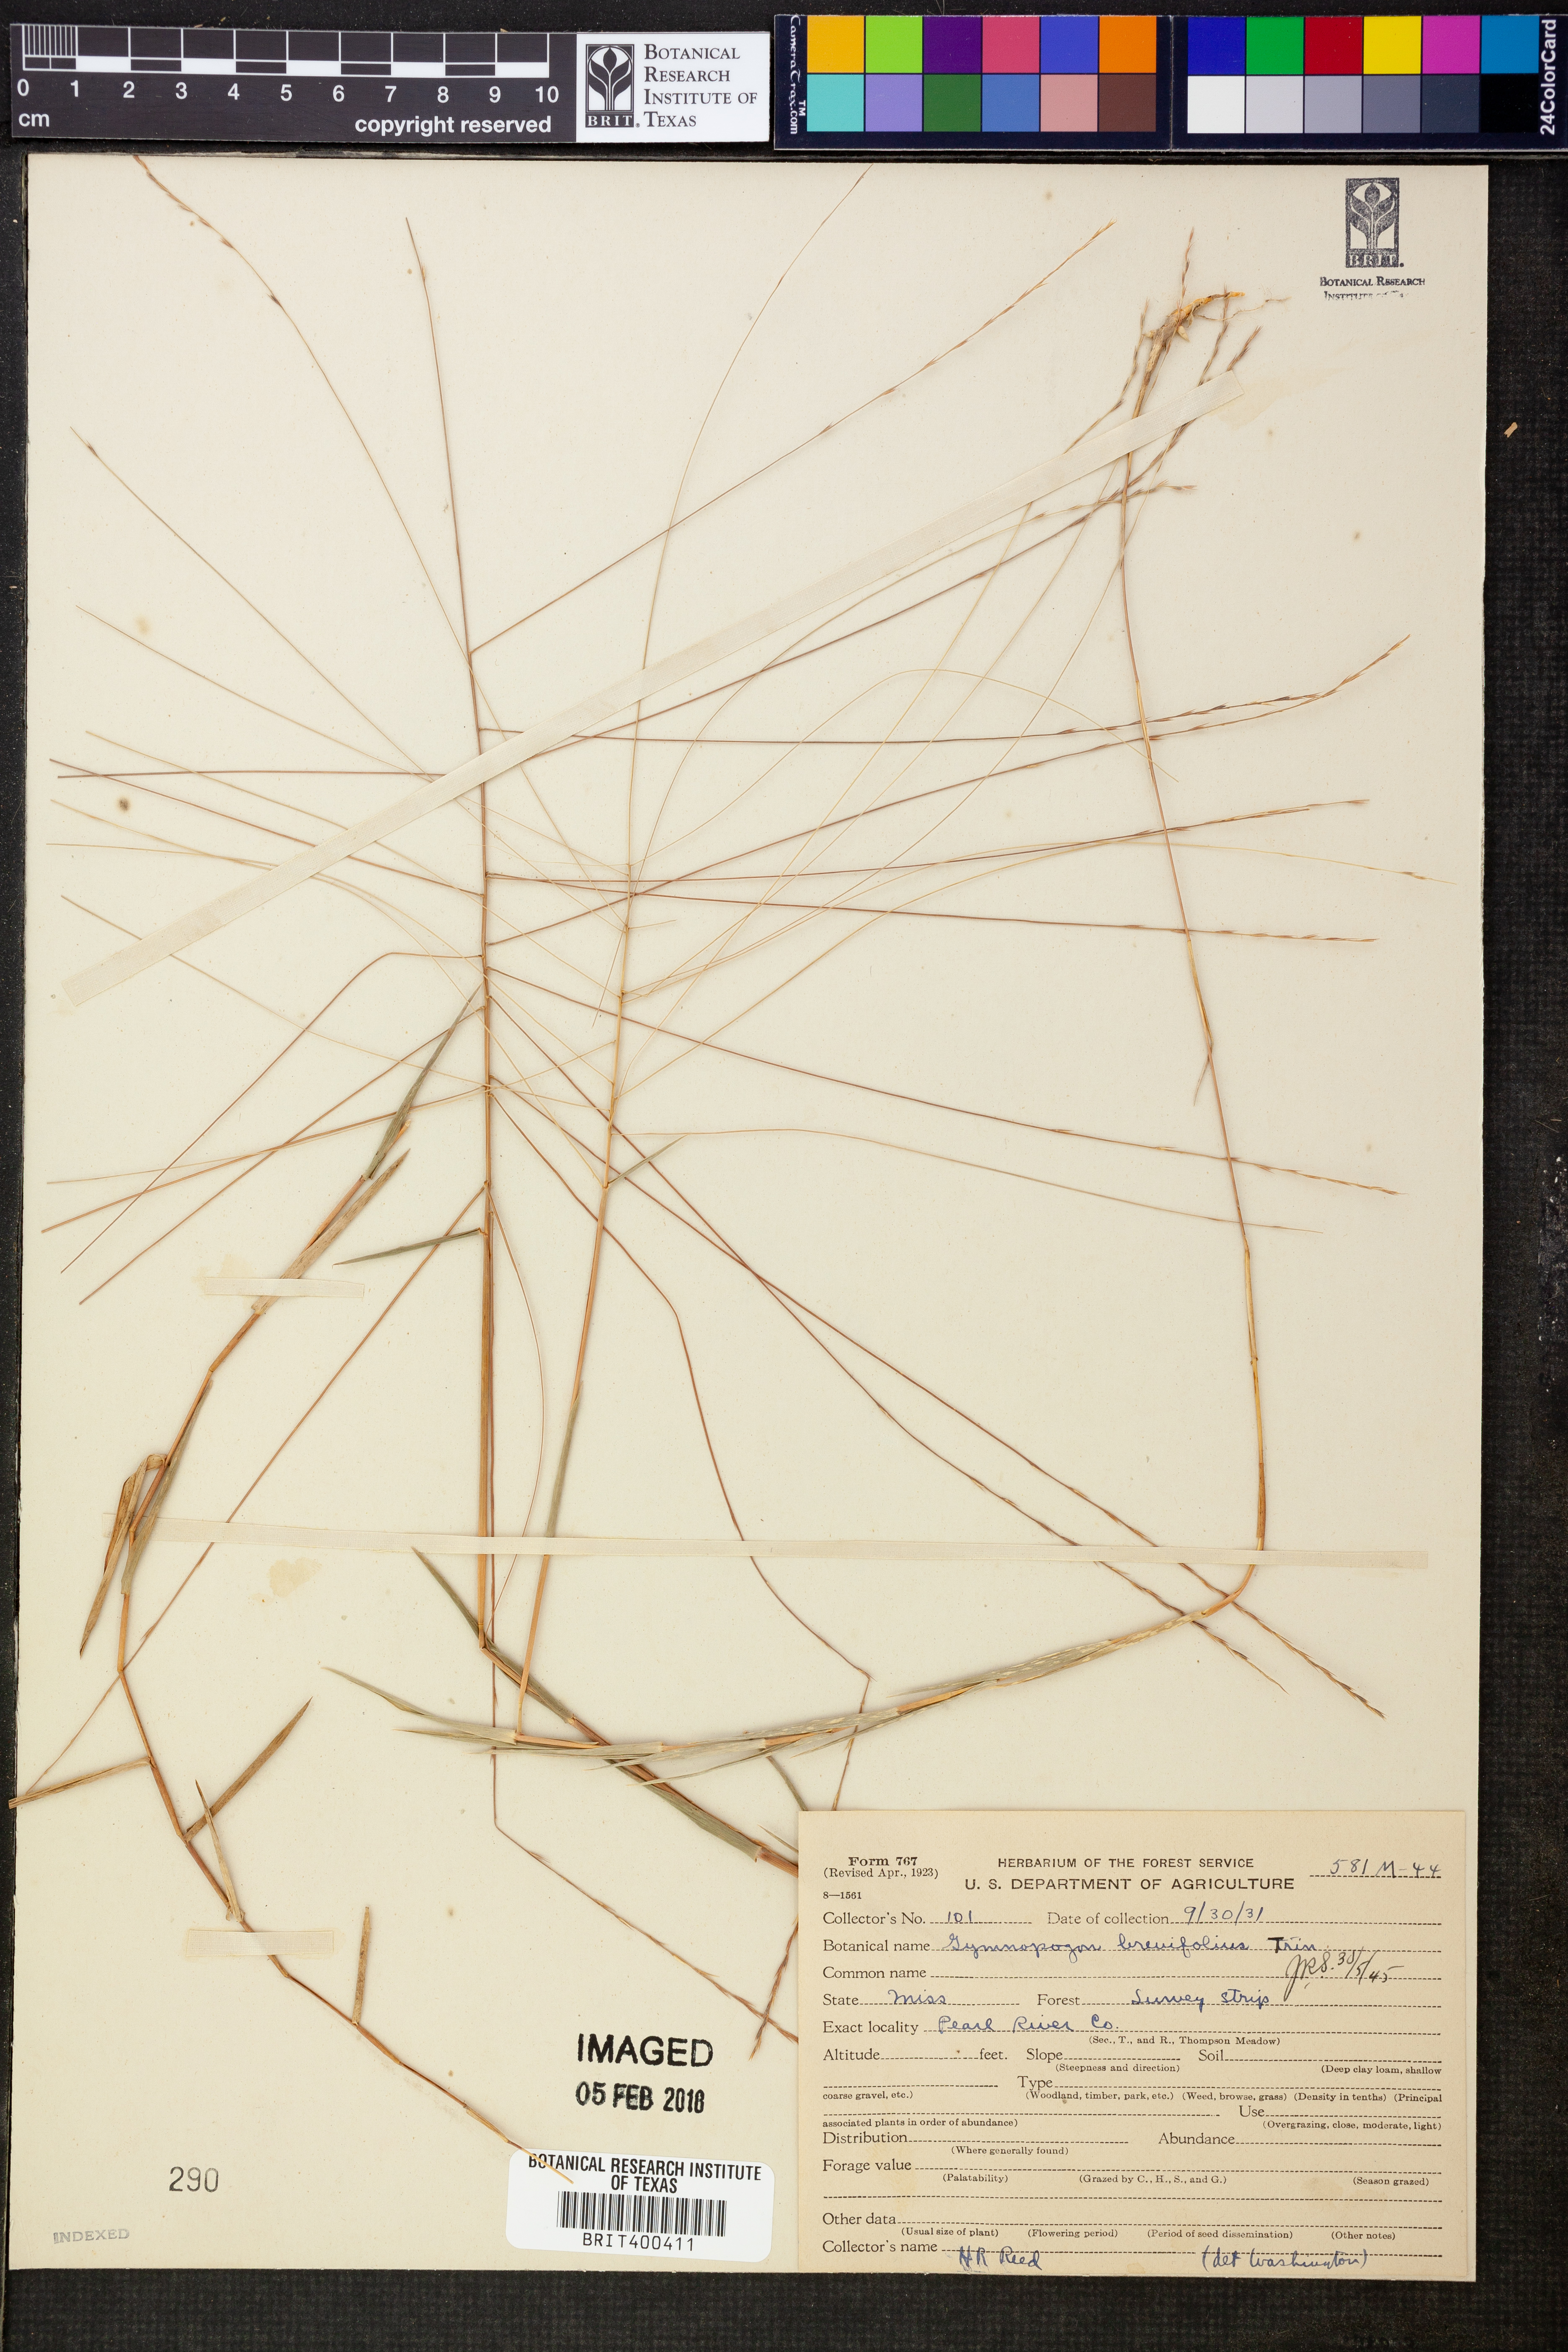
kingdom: Plantae
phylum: Tracheophyta
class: Liliopsida
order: Poales
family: Poaceae
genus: Gymnopogon
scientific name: Gymnopogon brevifolius
